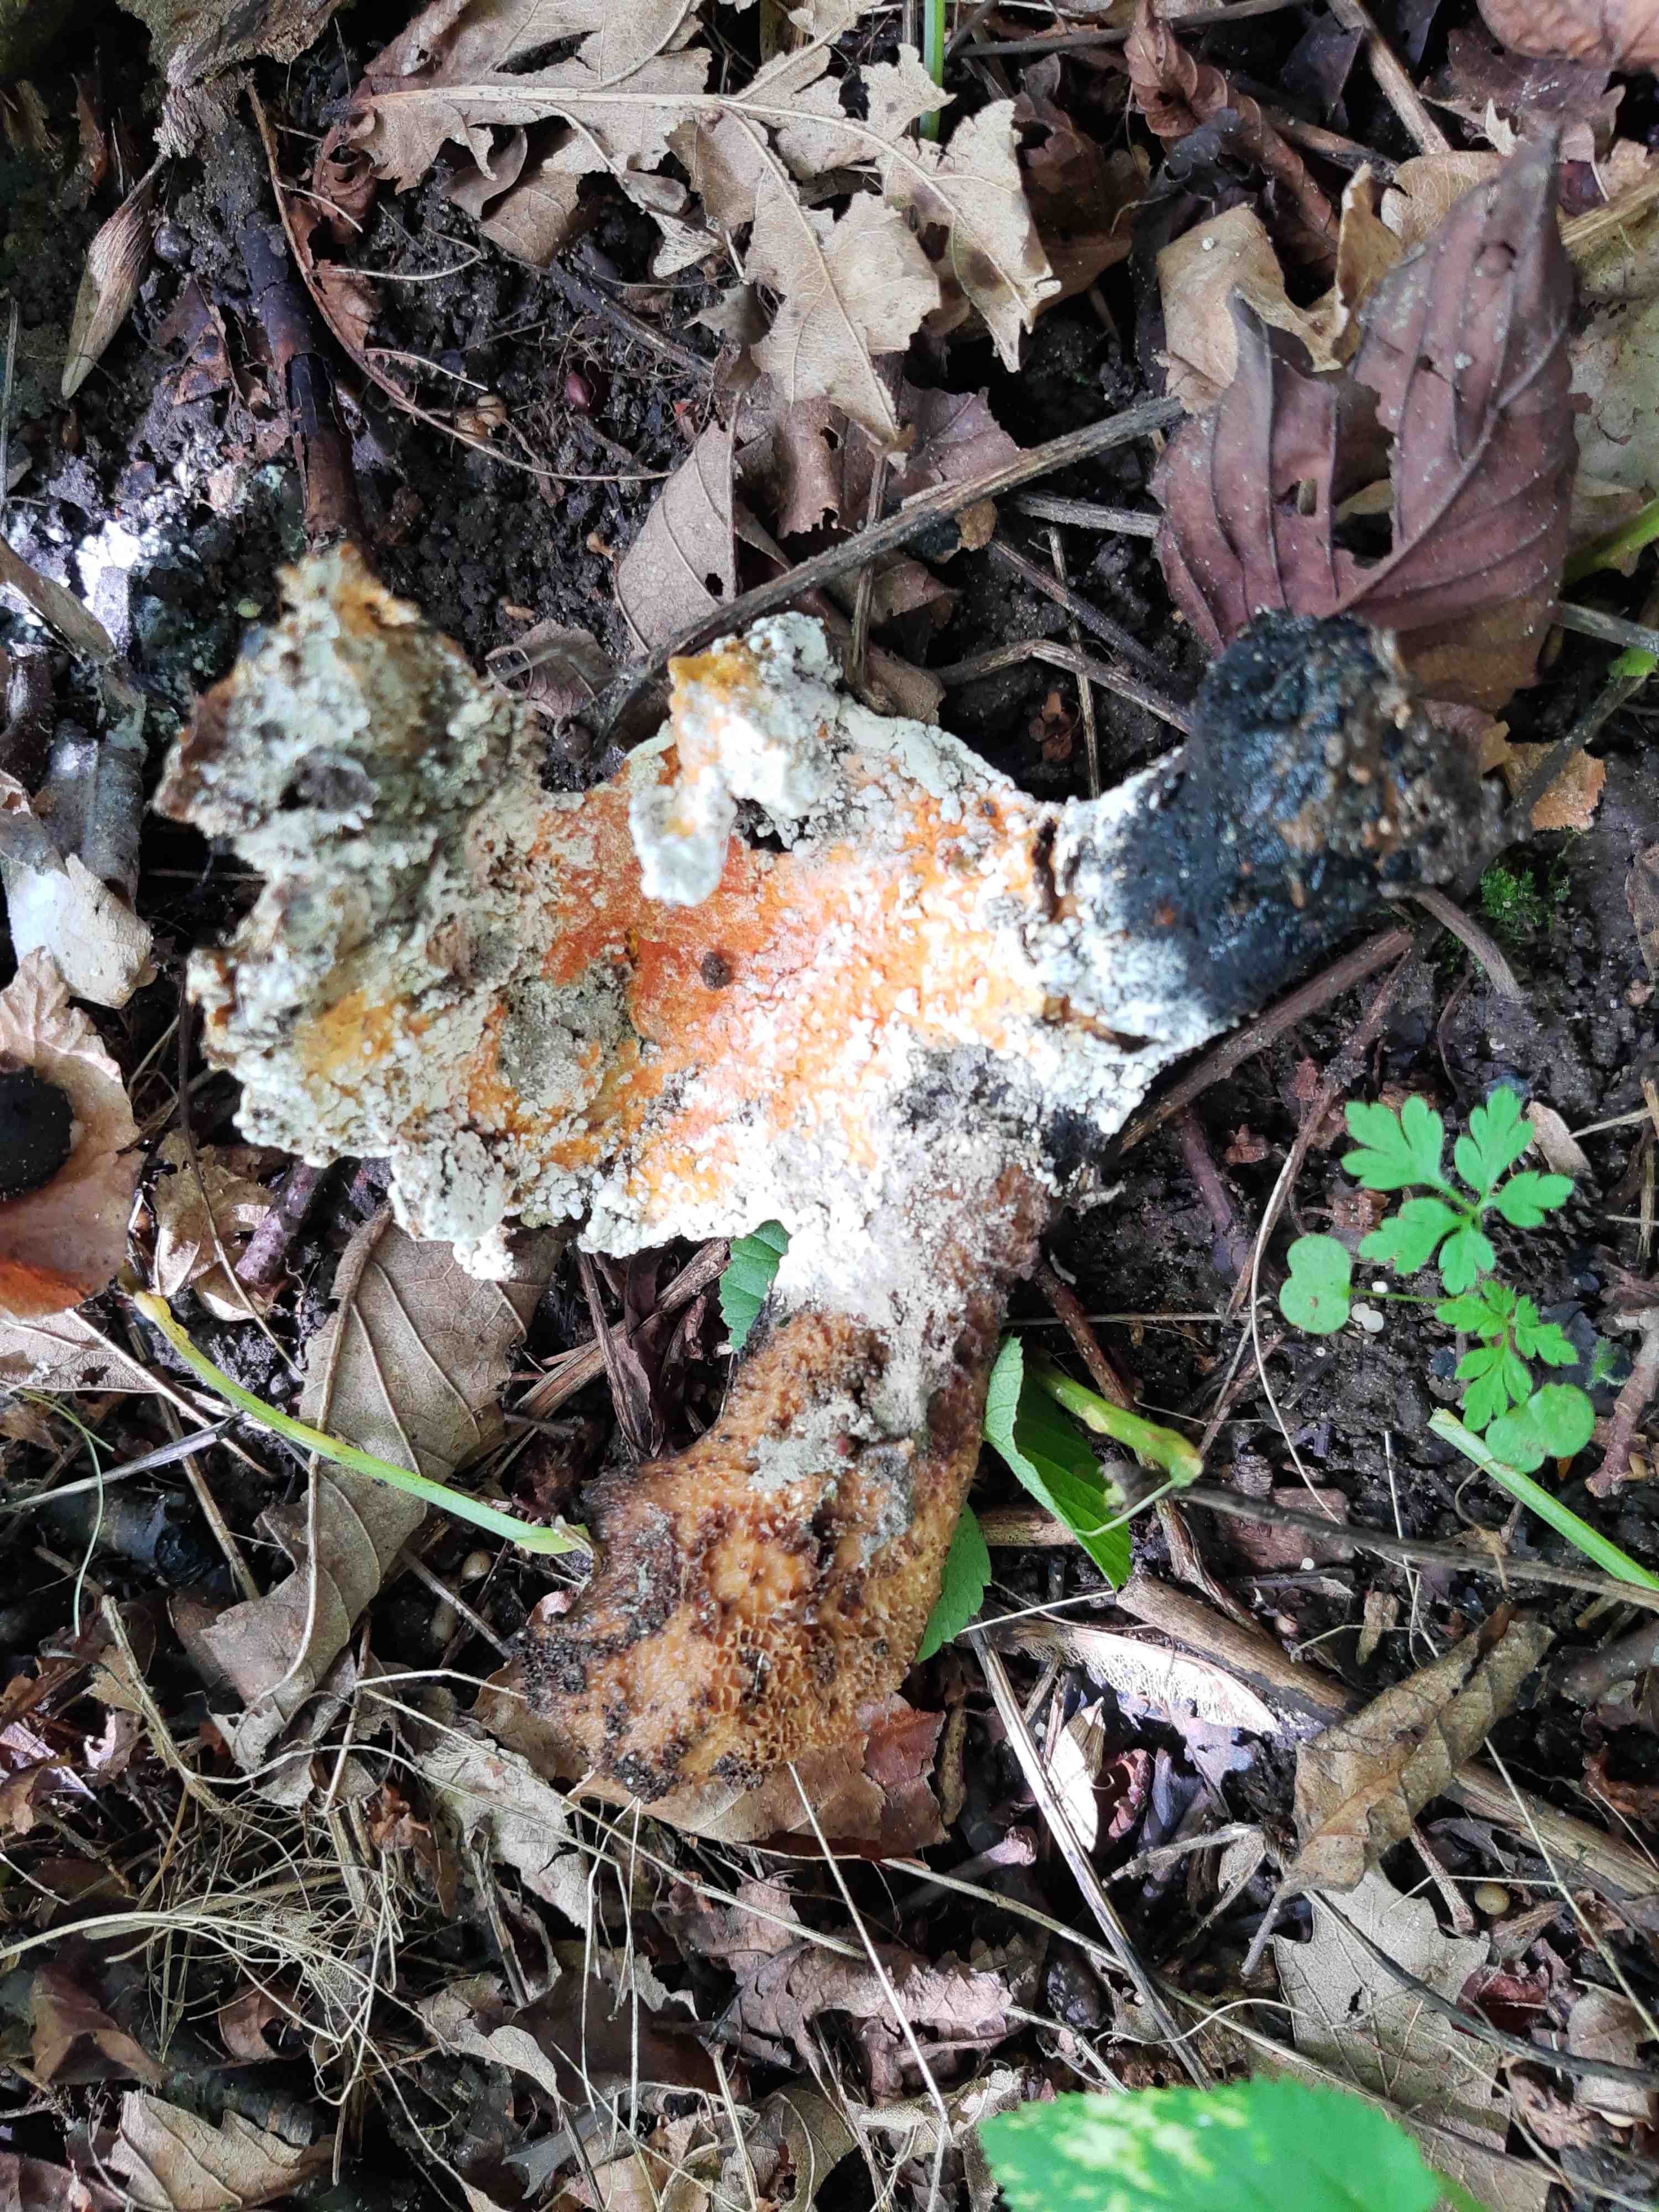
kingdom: Fungi
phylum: Ascomycota
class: Sordariomycetes
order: Hypocreales
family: Hypocreaceae
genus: Hypomyces
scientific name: Hypomyces aurantius
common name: almindelig snylteskorpe
